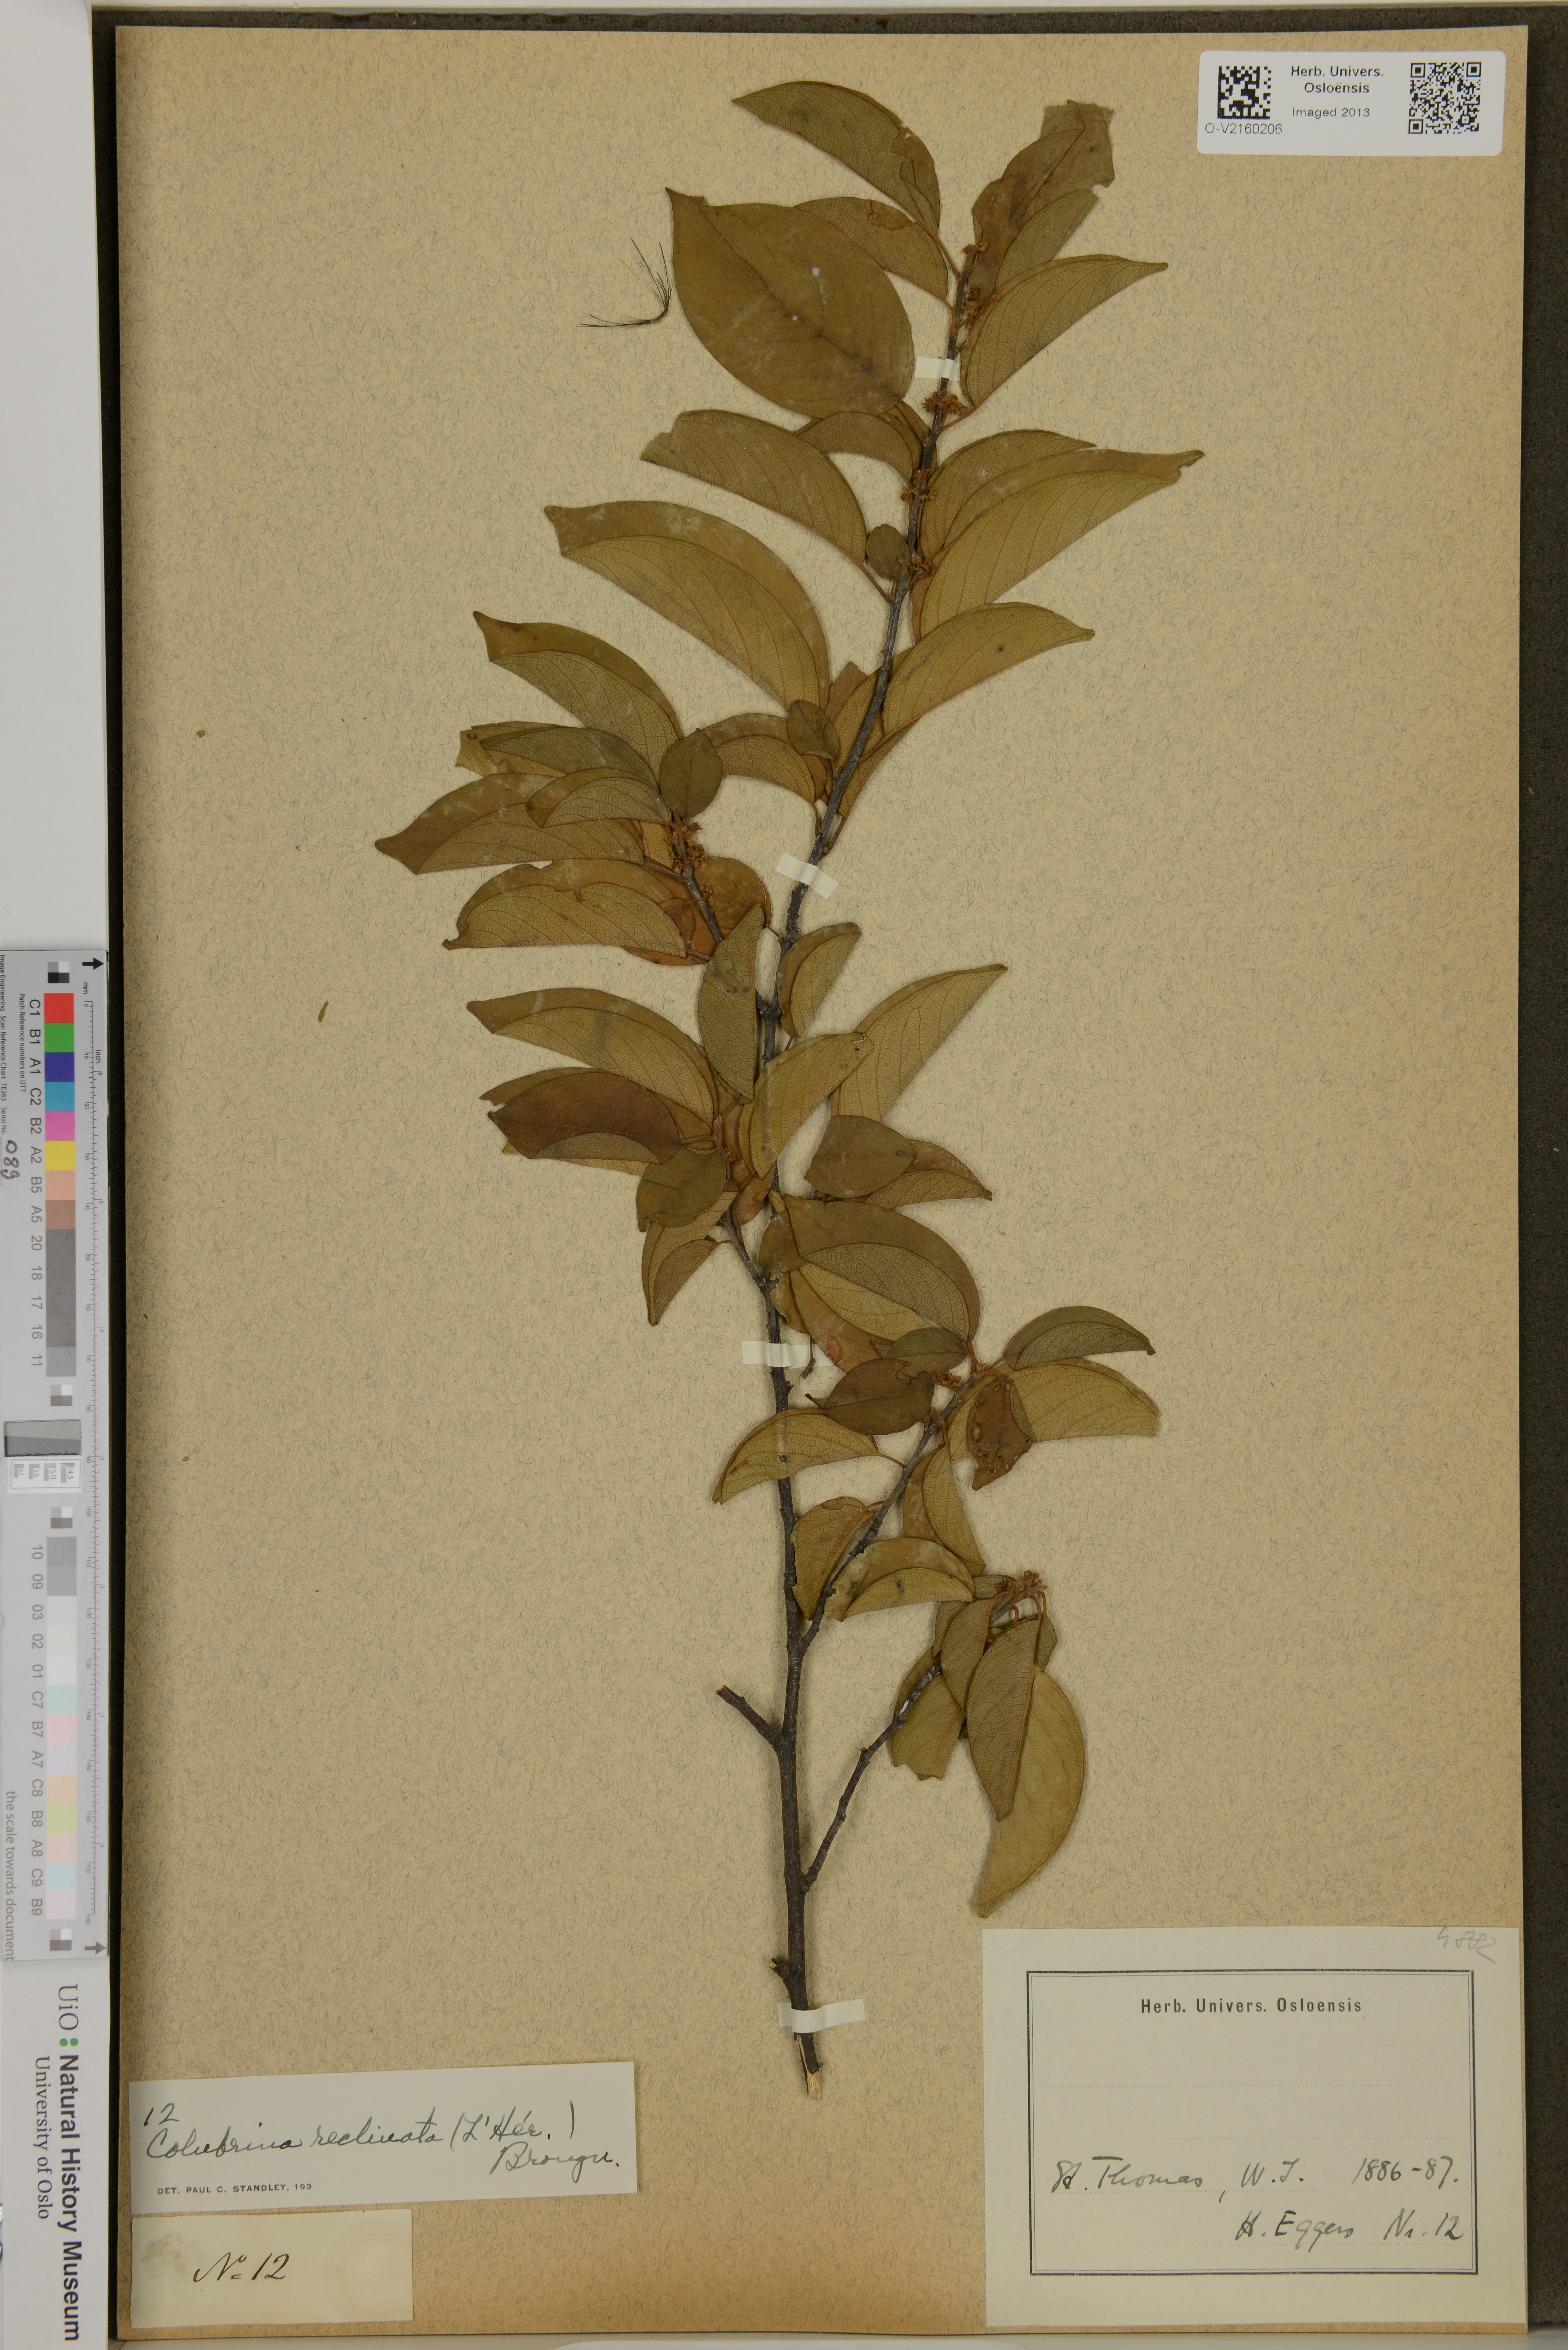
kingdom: Plantae
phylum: Tracheophyta
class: Magnoliopsida
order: Rosales
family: Rhamnaceae
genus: Colubrina
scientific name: Colubrina elliptica
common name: Soldierwood
